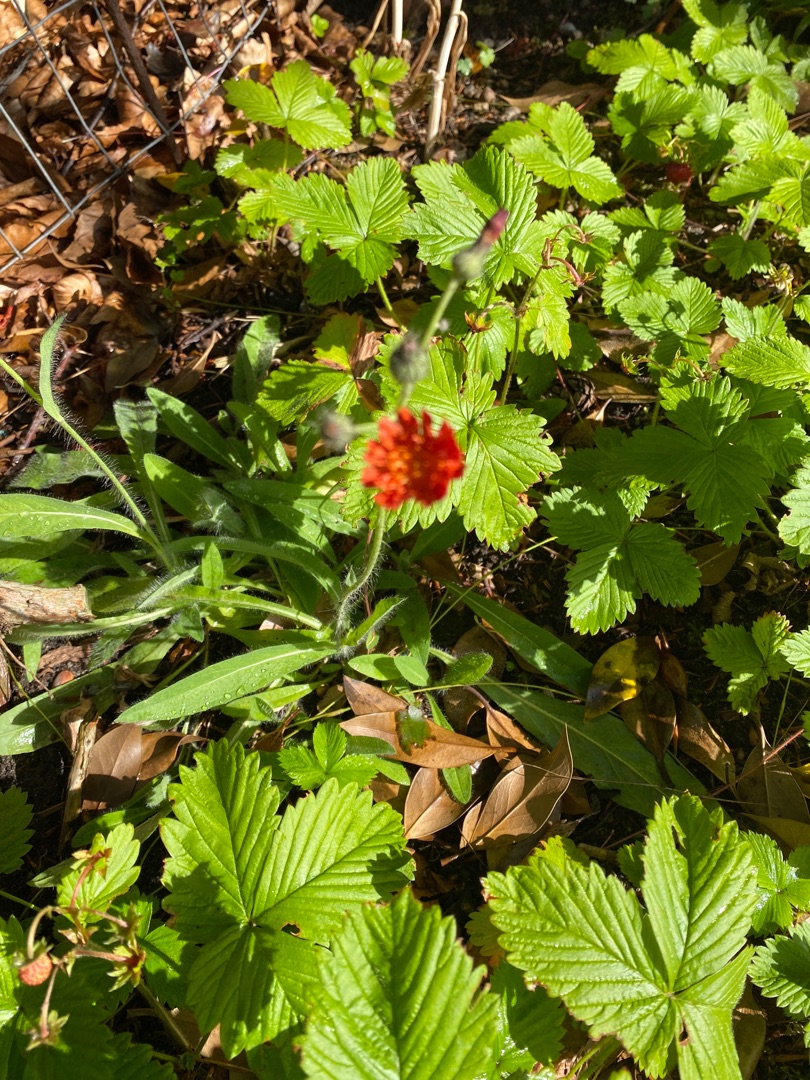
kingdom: Plantae
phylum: Tracheophyta
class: Magnoliopsida
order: Asterales
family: Asteraceae
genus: Pilosella
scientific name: Pilosella aurantiaca
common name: Pomerans-høgeurt
